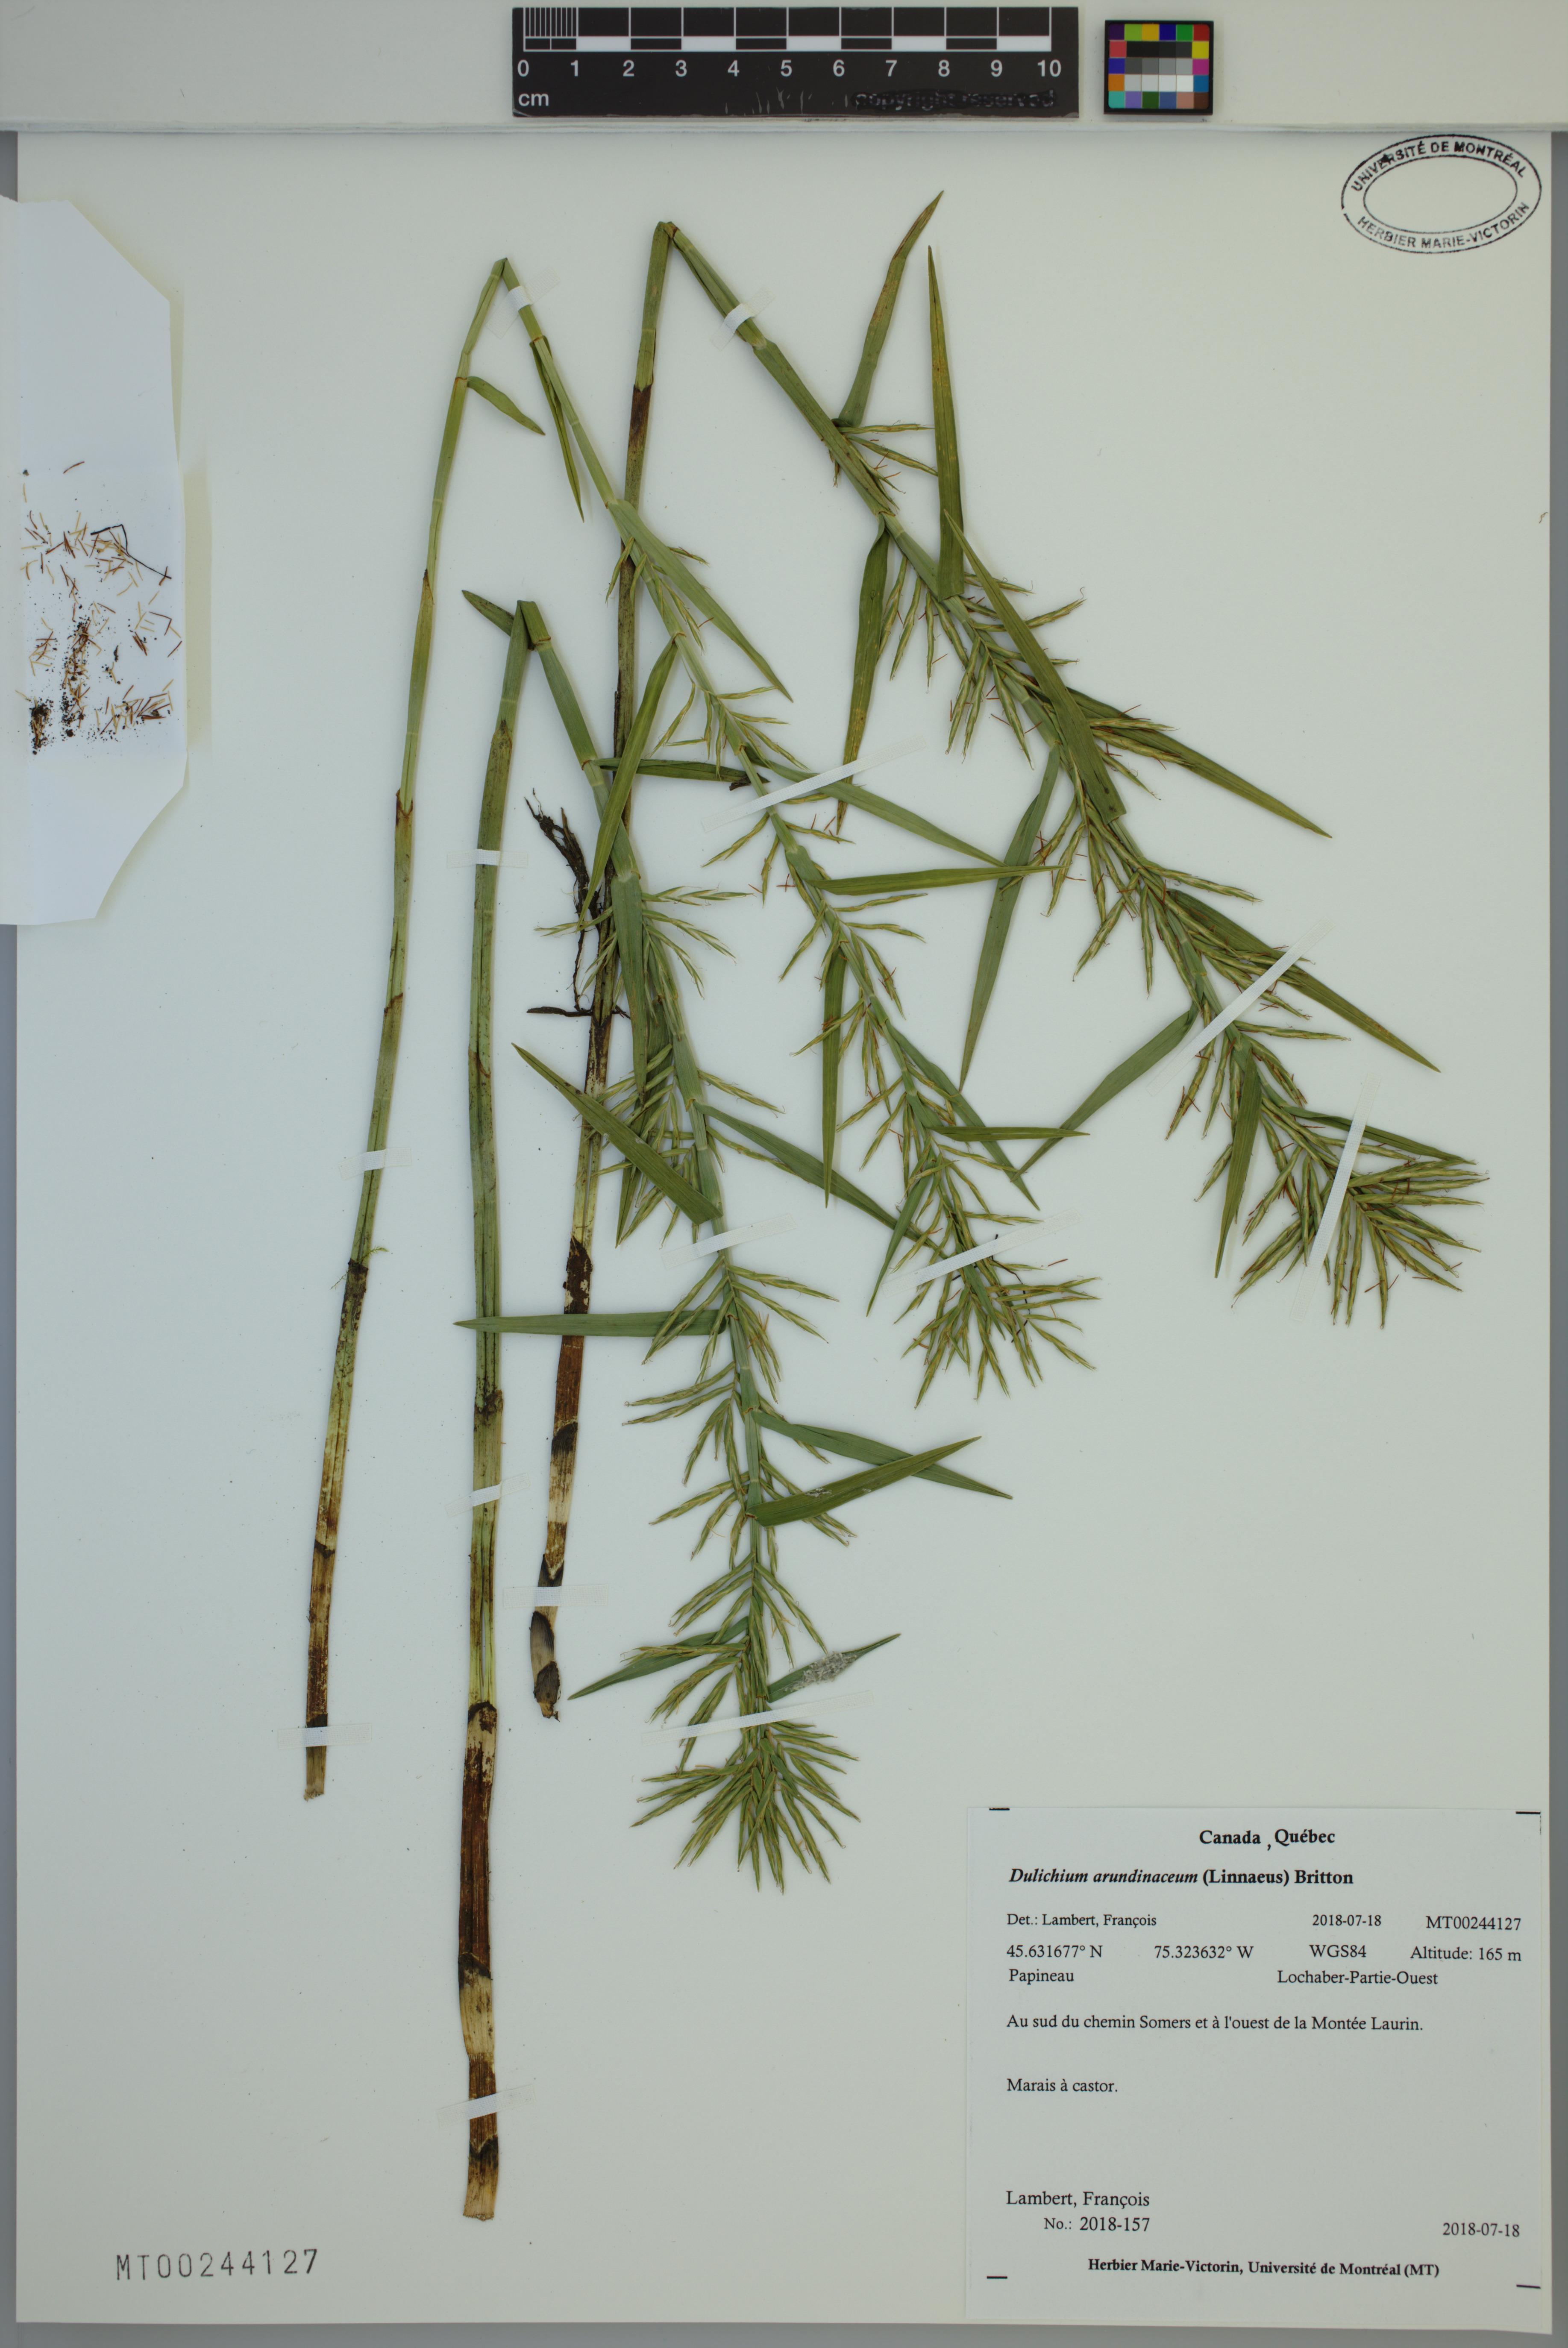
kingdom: Plantae
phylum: Tracheophyta
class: Liliopsida
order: Poales
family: Cyperaceae
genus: Dulichium
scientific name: Dulichium arundinaceum
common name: Three-way sedge
